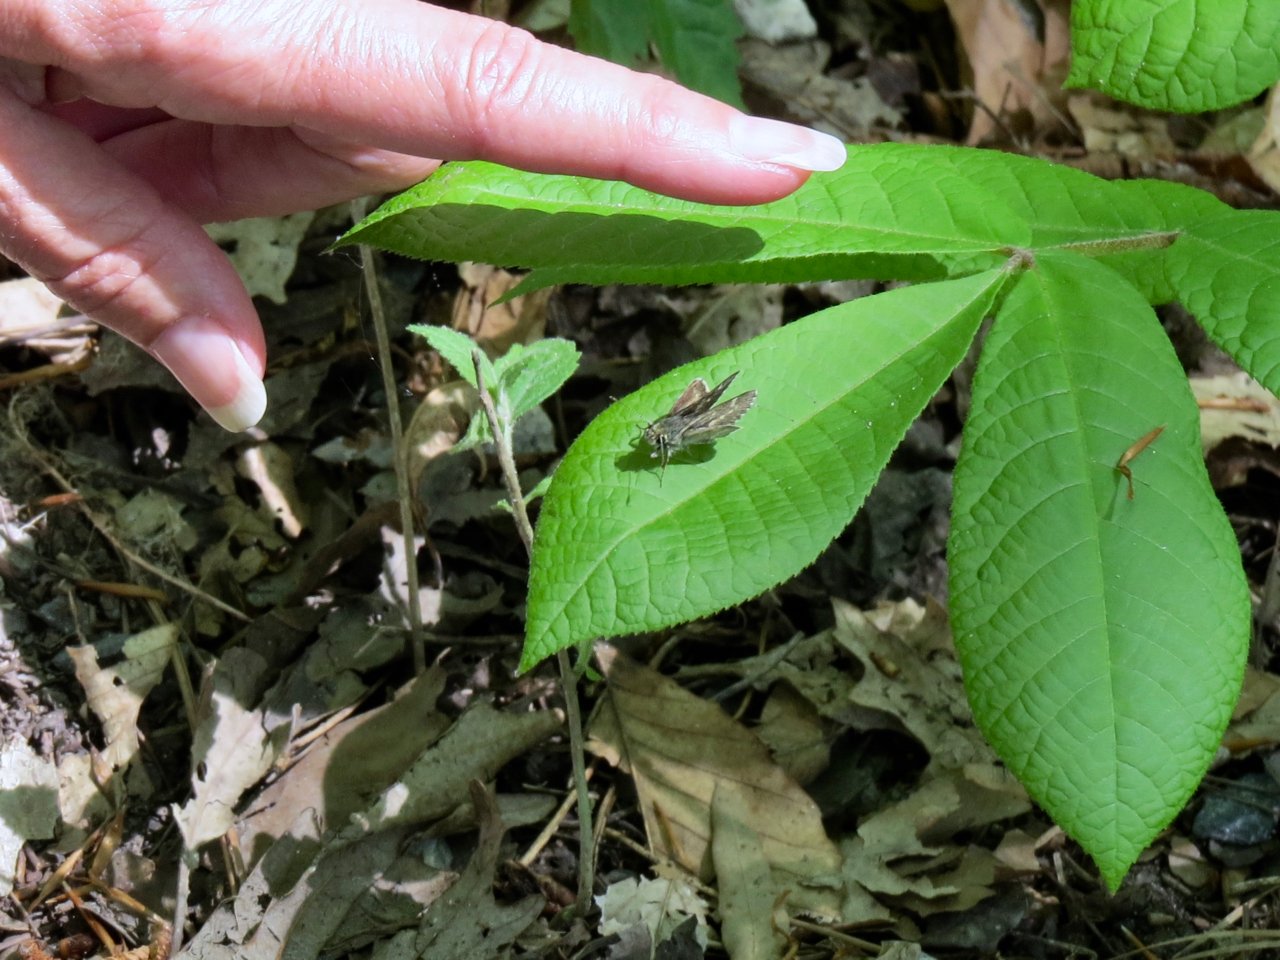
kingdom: Animalia
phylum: Arthropoda
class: Insecta
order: Lepidoptera
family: Hesperiidae
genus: Mastor
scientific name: Mastor hegon
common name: Pepper and Salt Skipper
